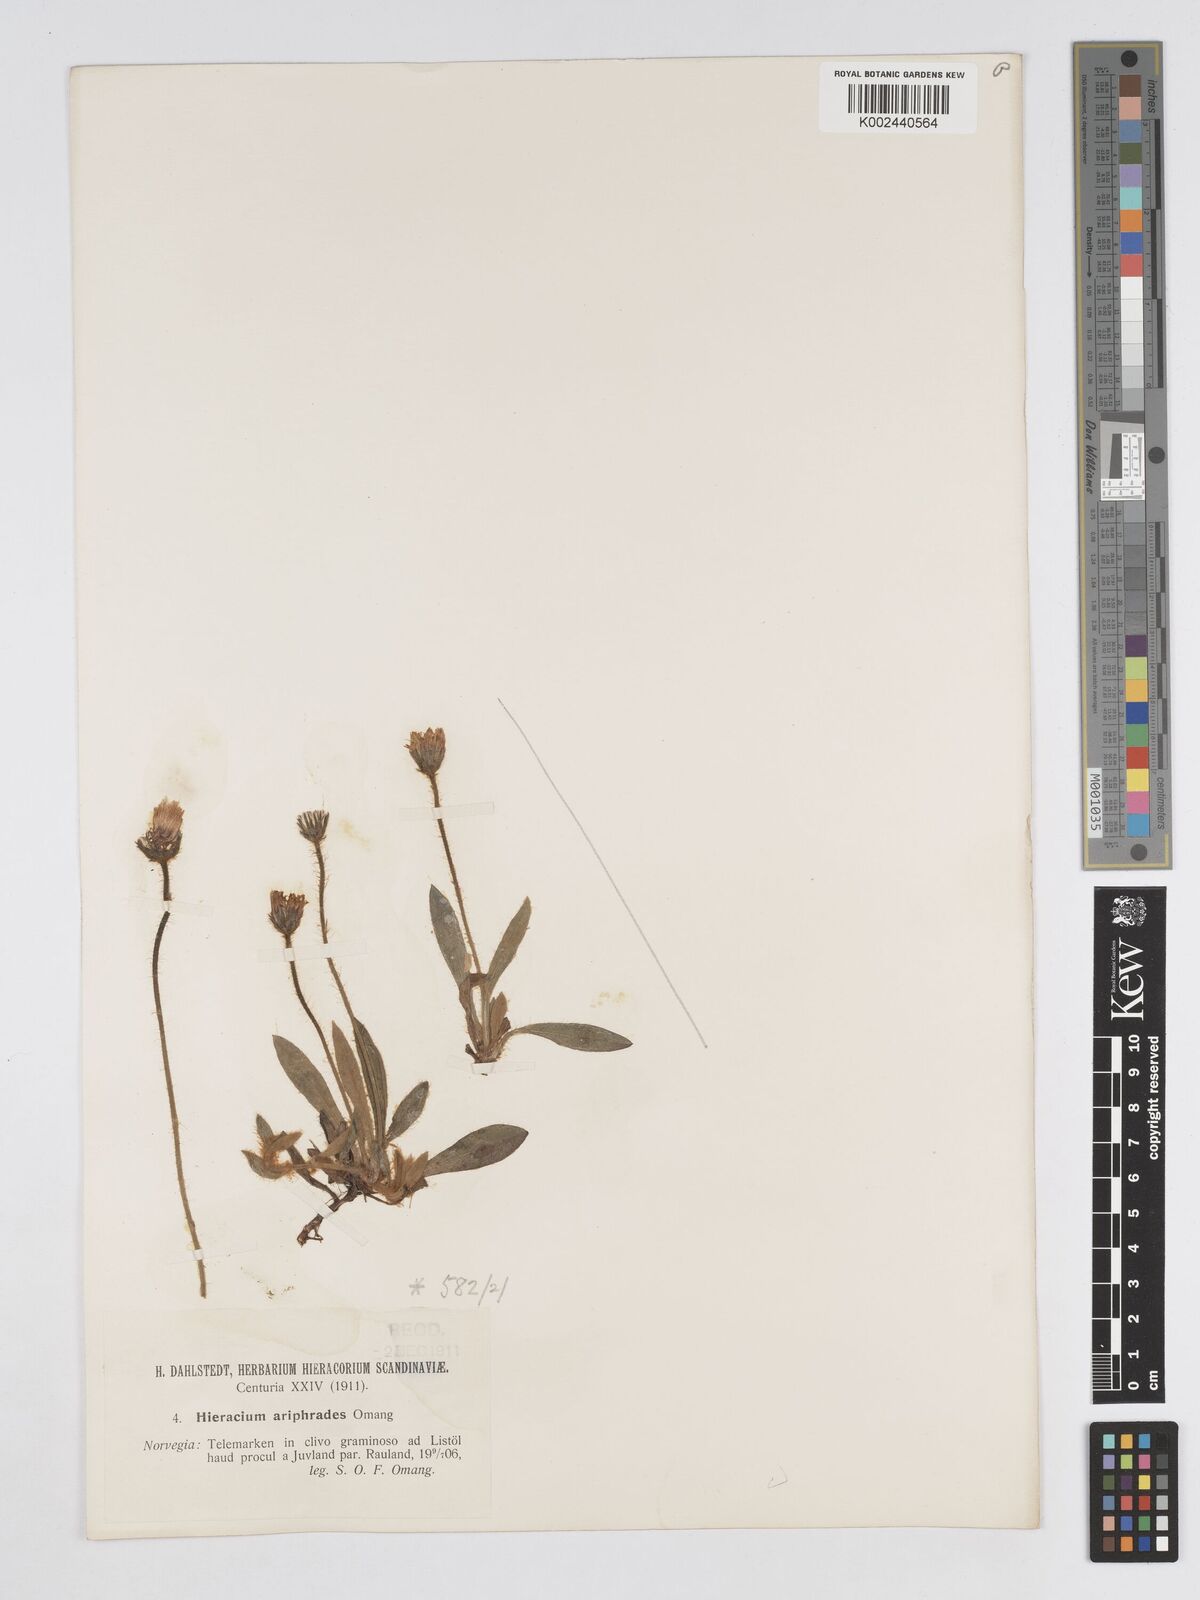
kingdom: Plantae
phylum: Tracheophyta
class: Magnoliopsida
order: Asterales
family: Asteraceae
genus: Pilosella
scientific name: Pilosella longisquama
